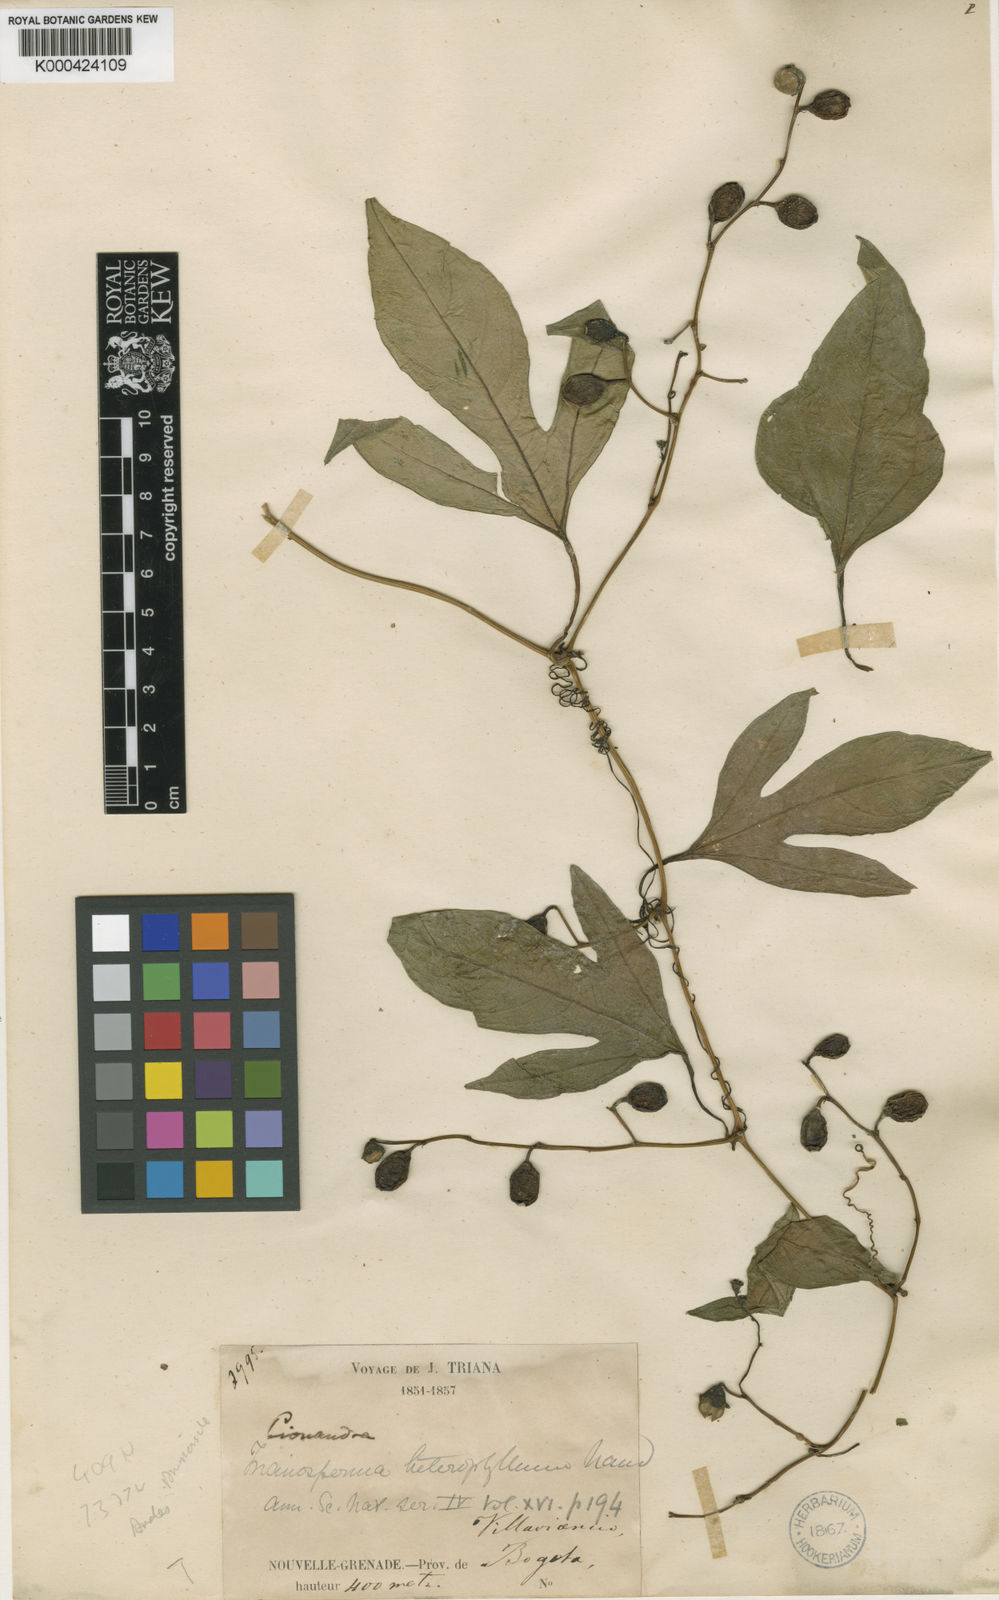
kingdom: Plantae
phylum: Tracheophyta
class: Magnoliopsida
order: Cucurbitales
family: Cucurbitaceae
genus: Cayaponia
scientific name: Cayaponia glandulosa
